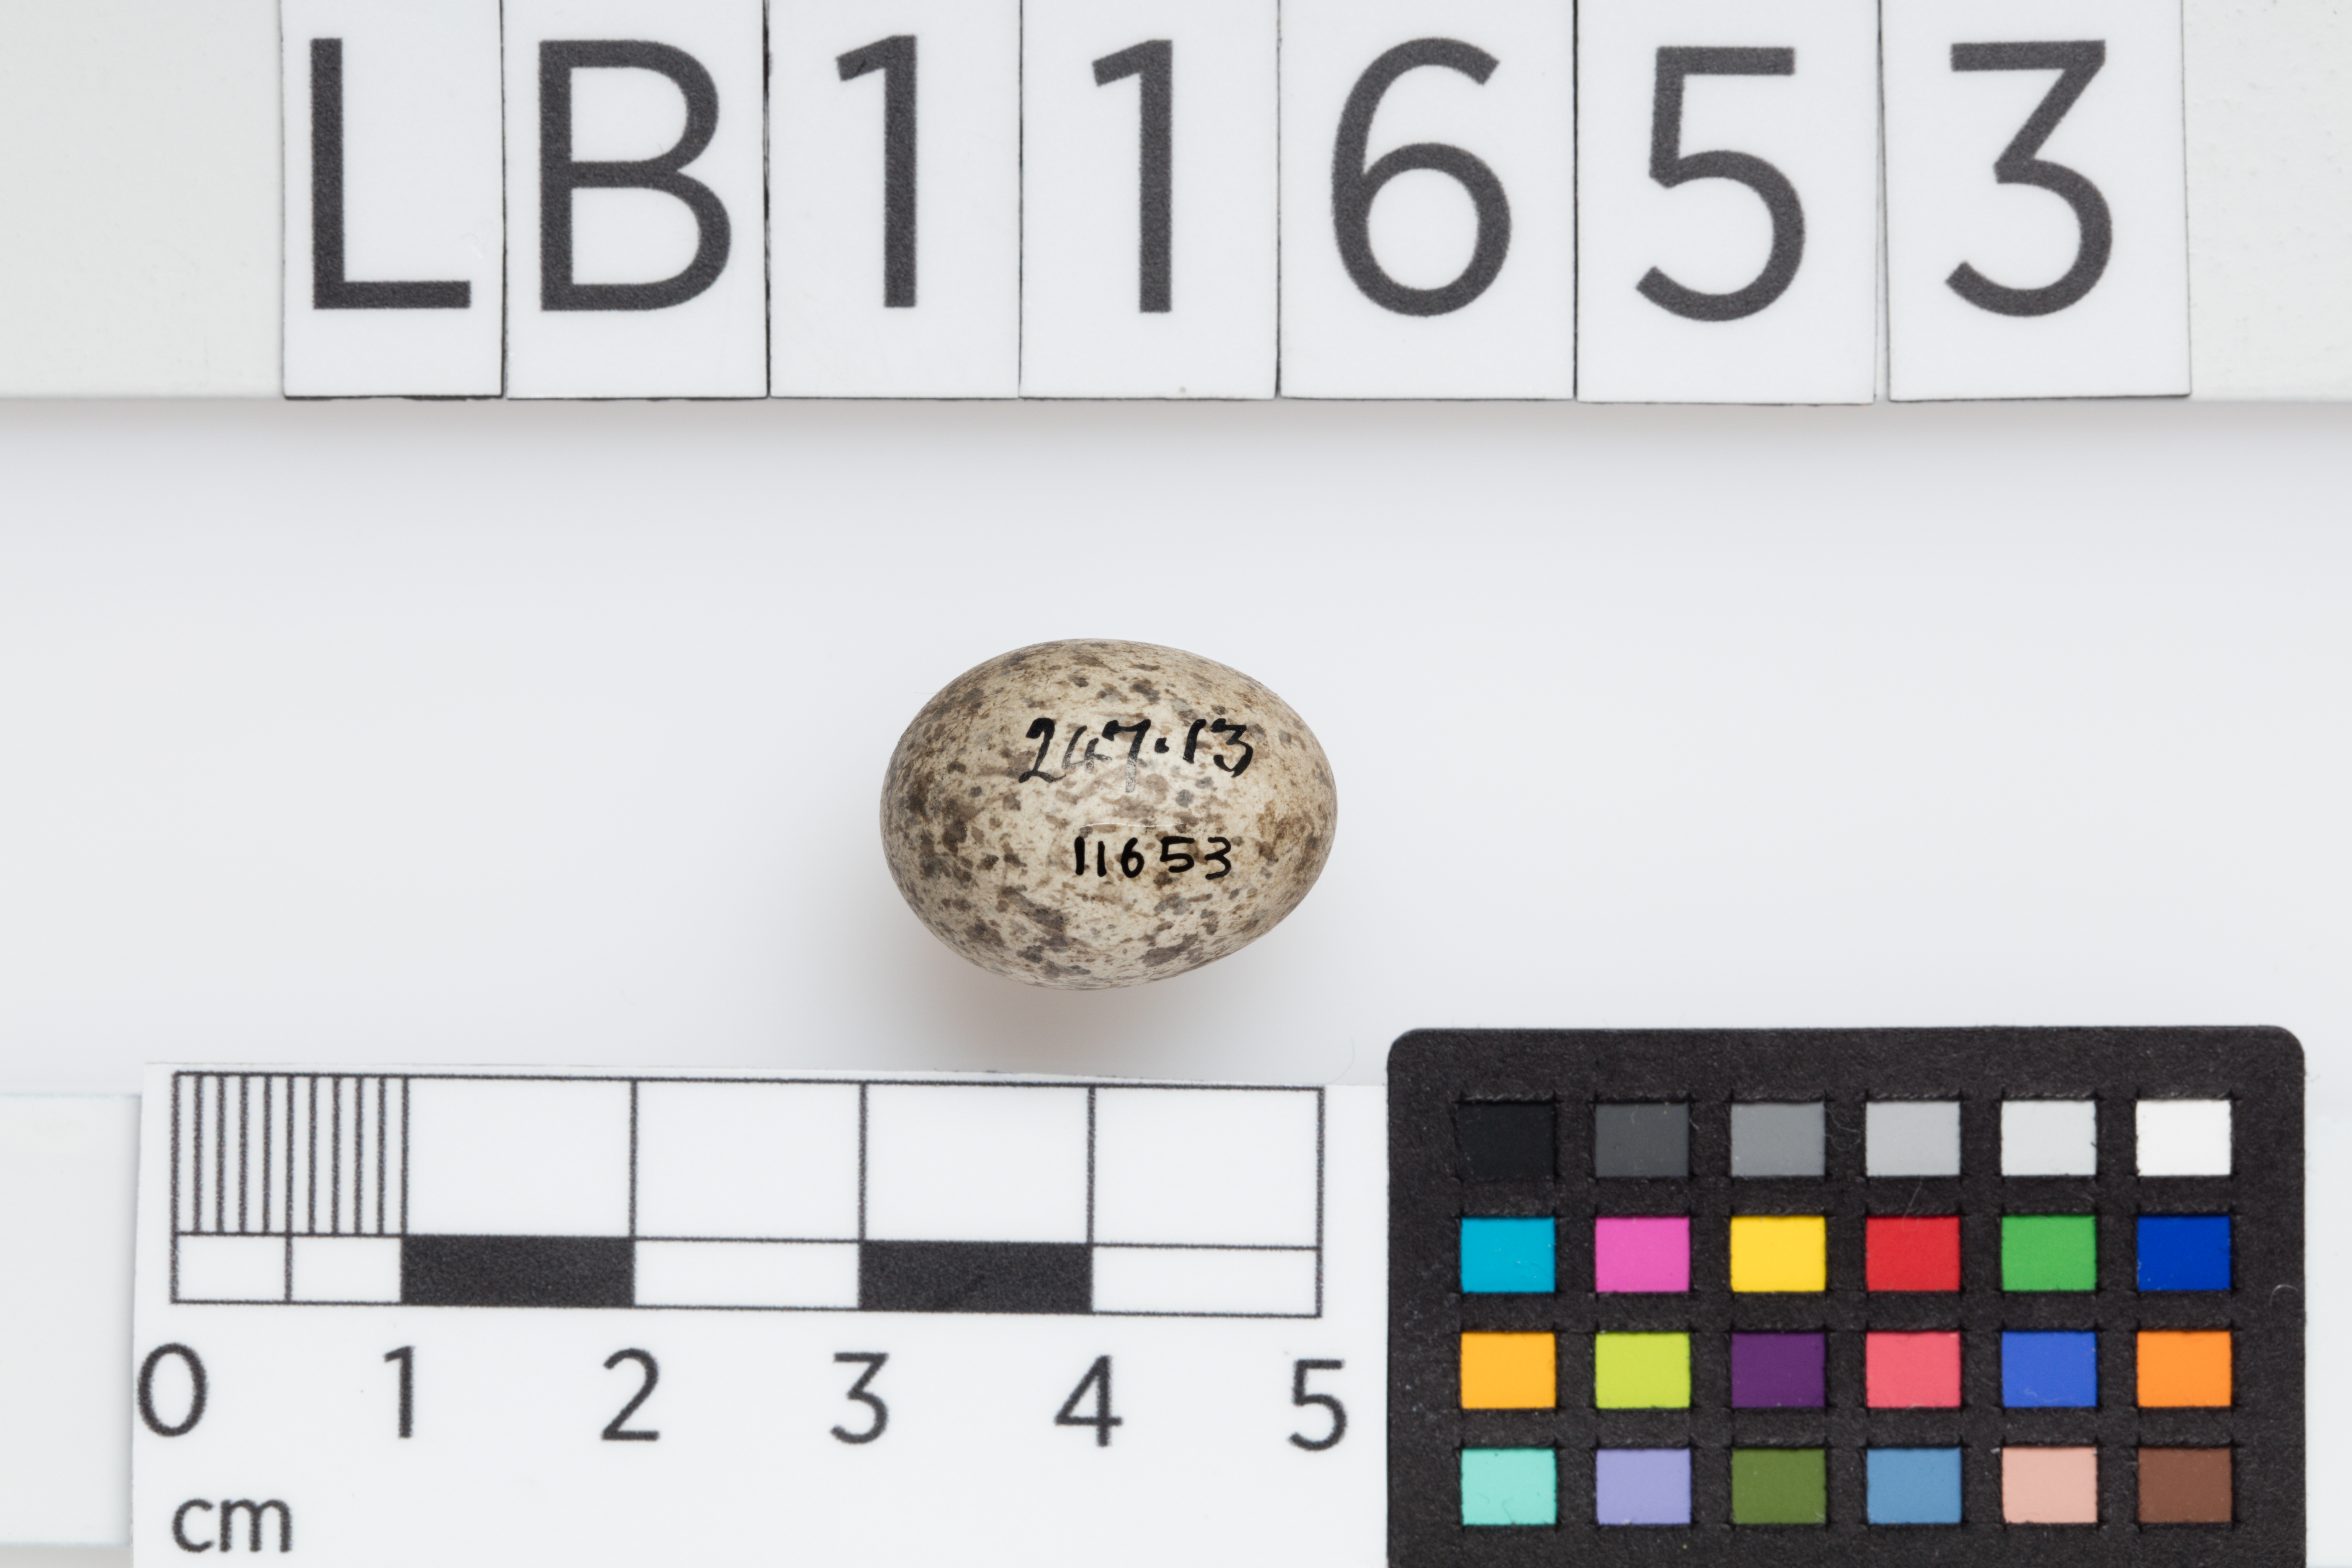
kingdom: Animalia
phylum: Chordata
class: Aves
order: Passeriformes
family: Passeridae
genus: Passer
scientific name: Passer domesticus
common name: House sparrow
